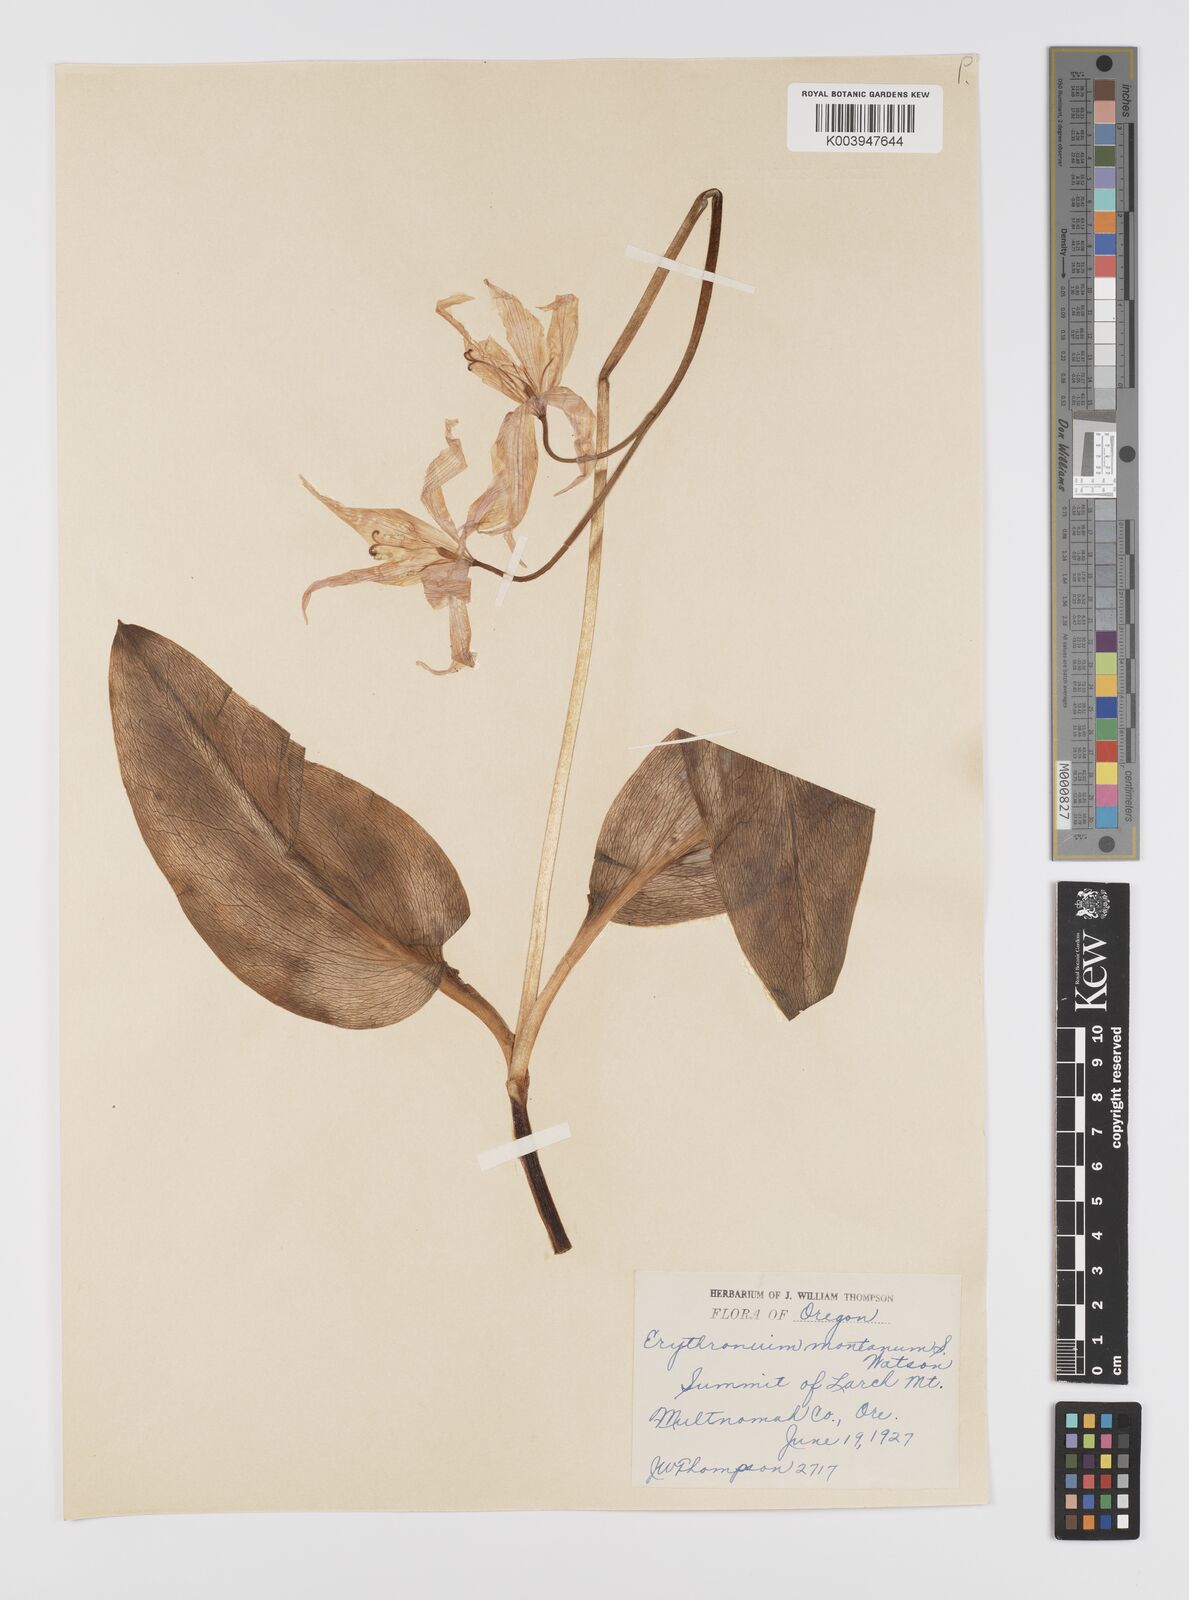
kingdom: Plantae
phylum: Tracheophyta
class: Liliopsida
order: Liliales
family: Liliaceae
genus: Erythronium
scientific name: Erythronium montanum
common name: Avalanche lily
